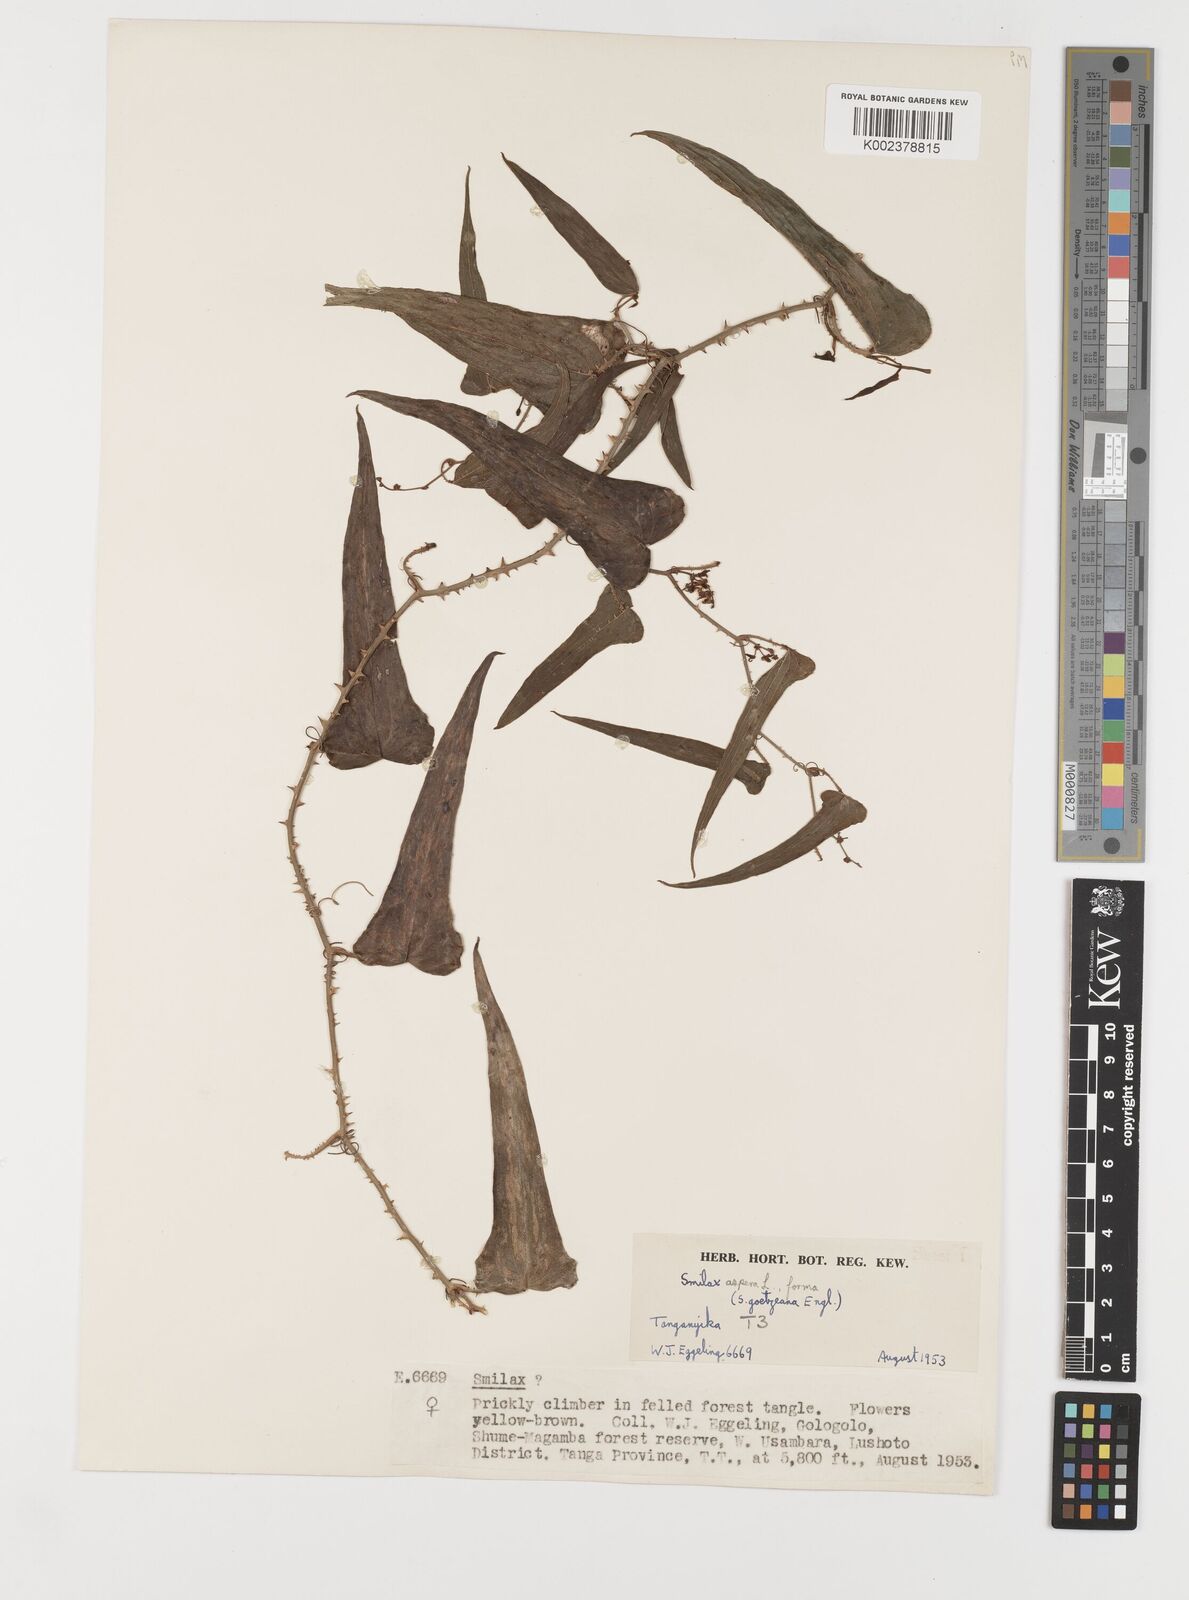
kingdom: Plantae
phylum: Tracheophyta
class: Liliopsida
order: Liliales
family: Smilacaceae
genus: Smilax
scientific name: Smilax aspera
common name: Common smilax
